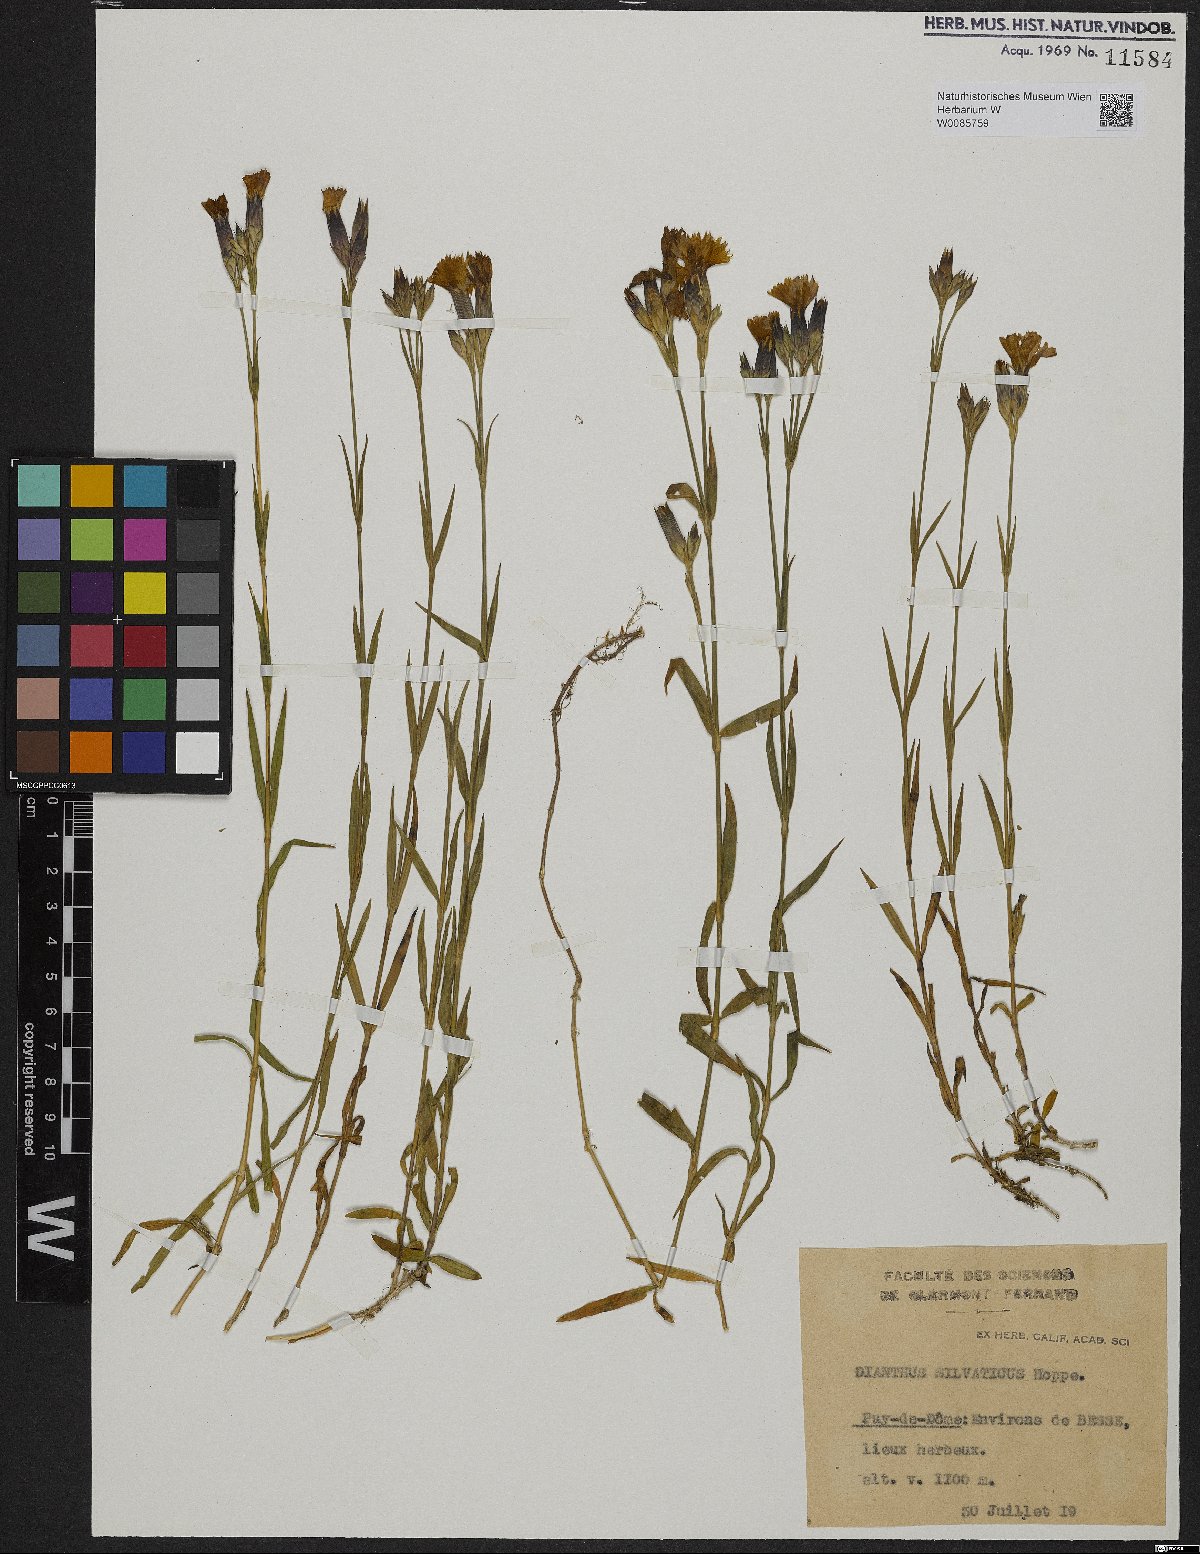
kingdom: Plantae
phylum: Tracheophyta
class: Magnoliopsida
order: Caryophyllales
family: Caryophyllaceae
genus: Dianthus
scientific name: Dianthus seguieri
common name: Ragged pink
